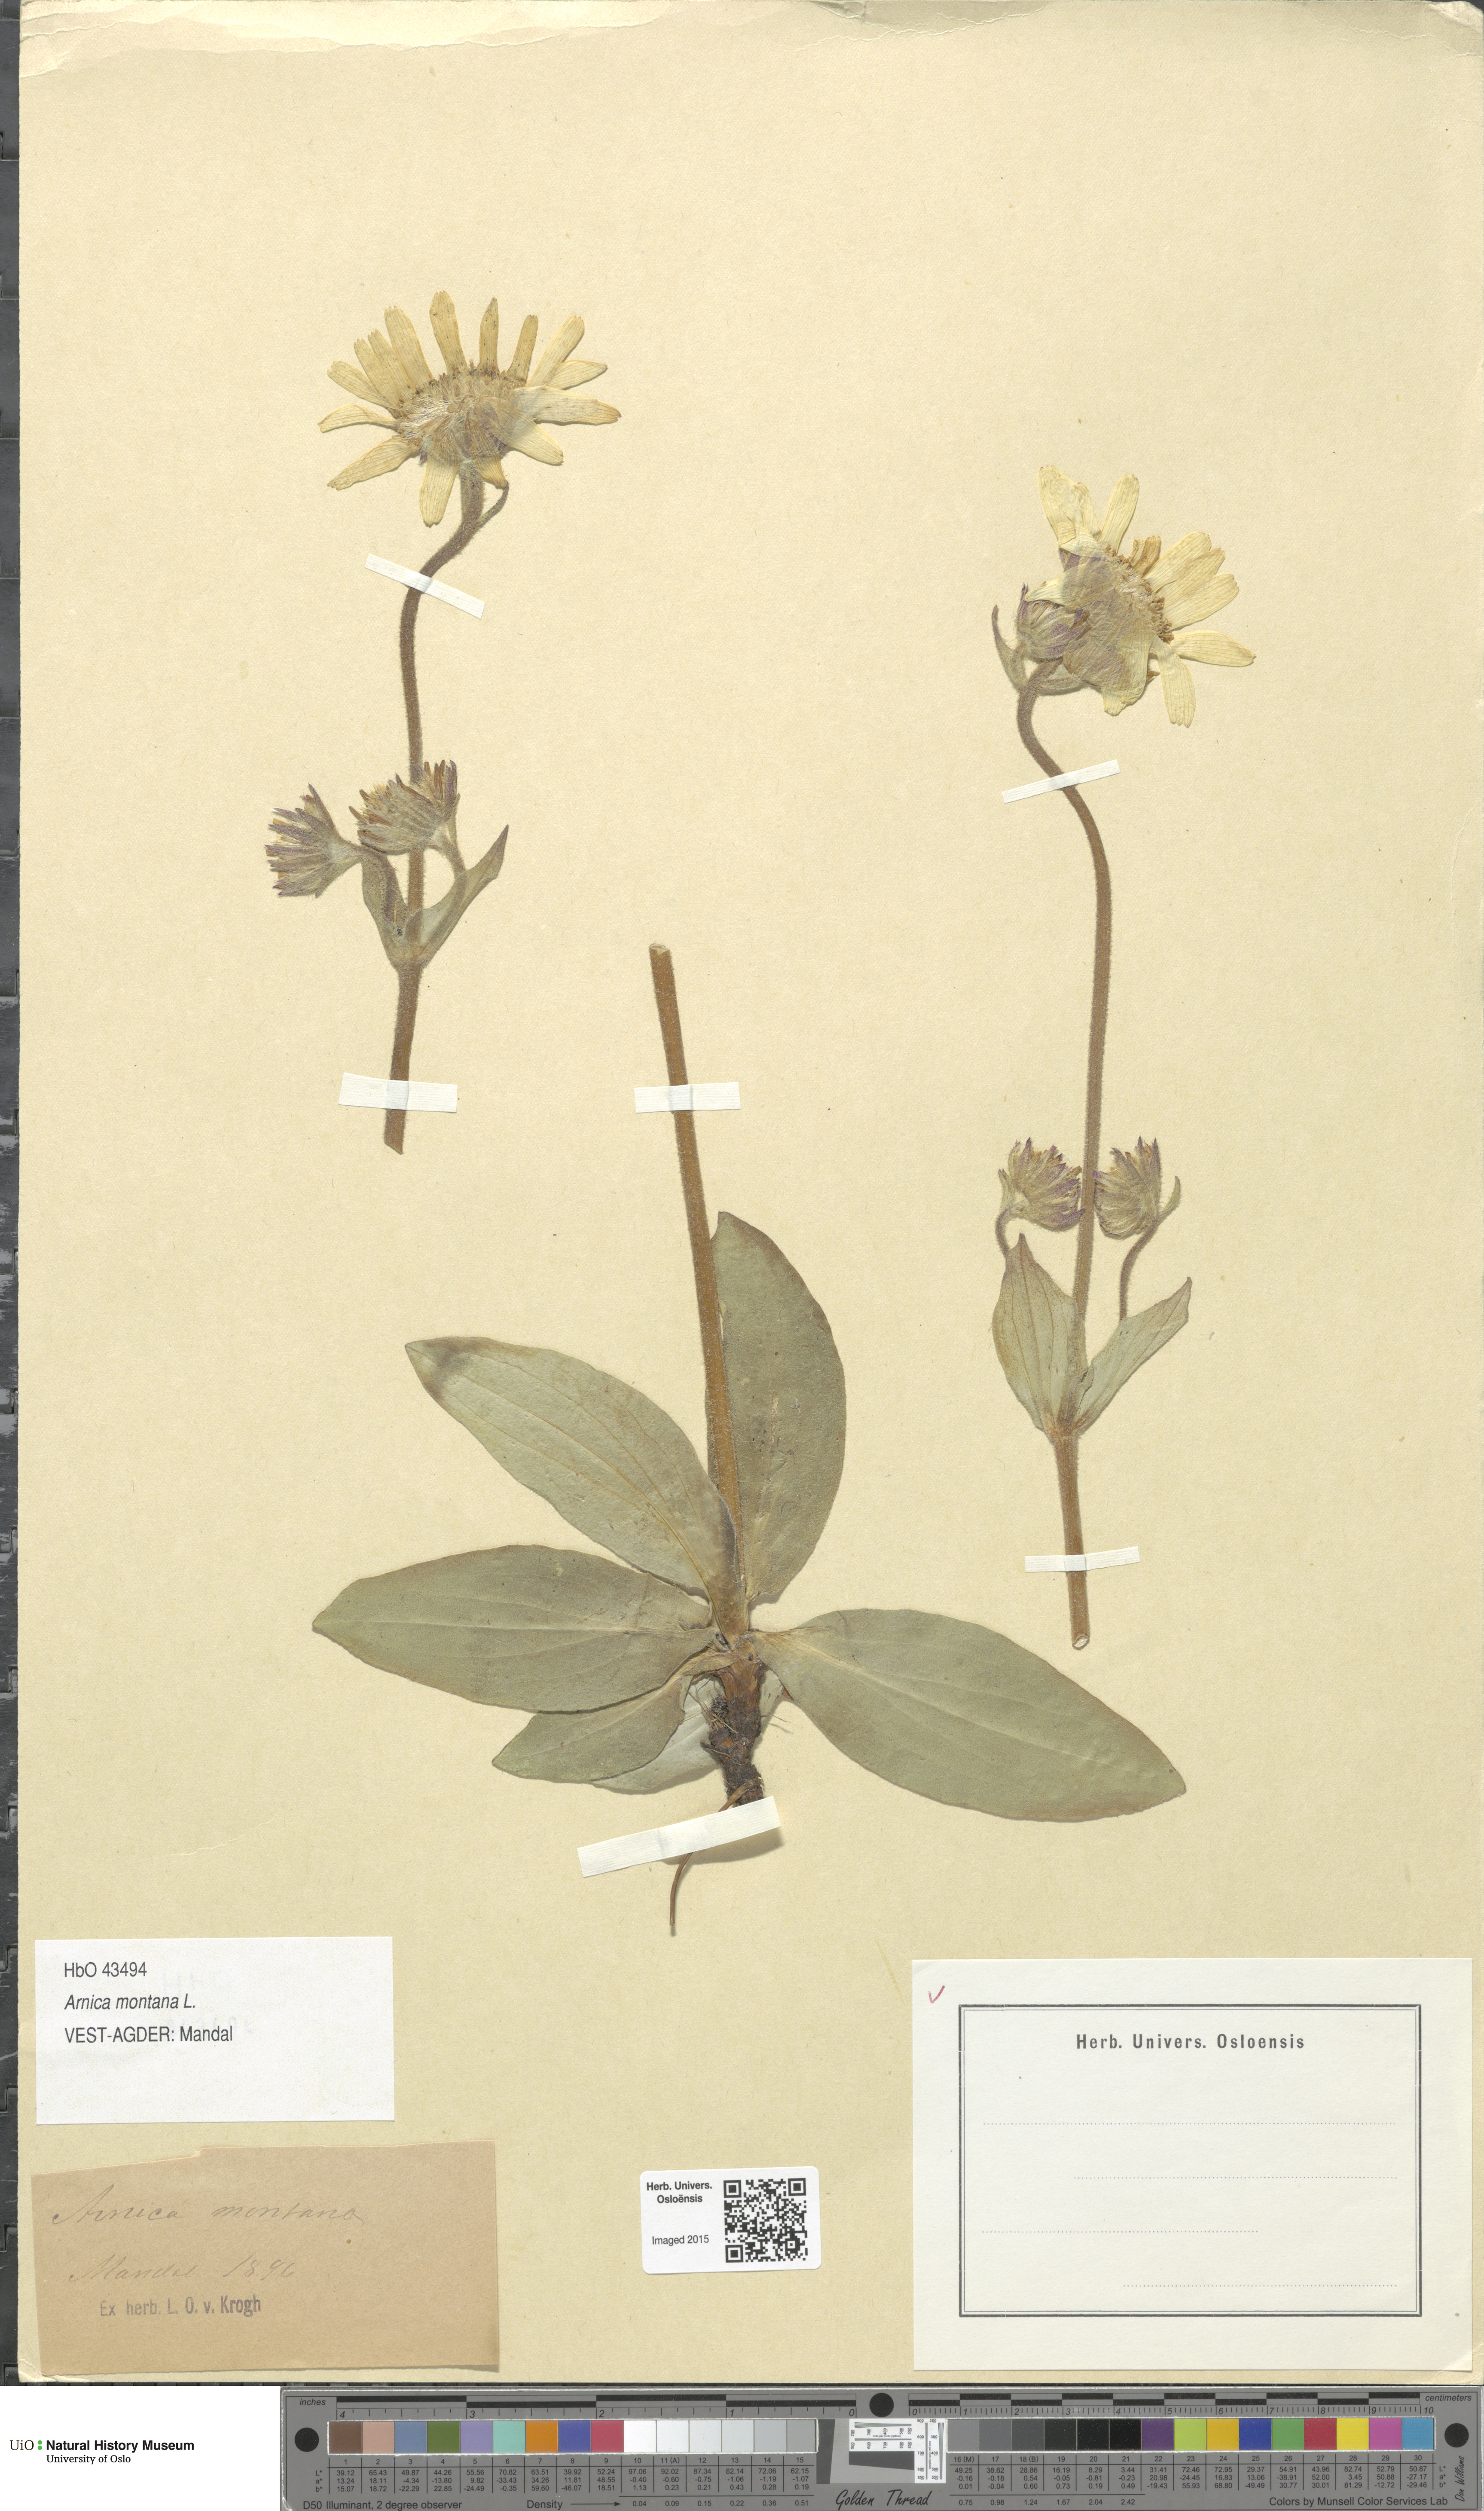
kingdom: Plantae
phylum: Tracheophyta
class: Magnoliopsida
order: Asterales
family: Asteraceae
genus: Arnica
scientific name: Arnica montana
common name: Leopard's bane
